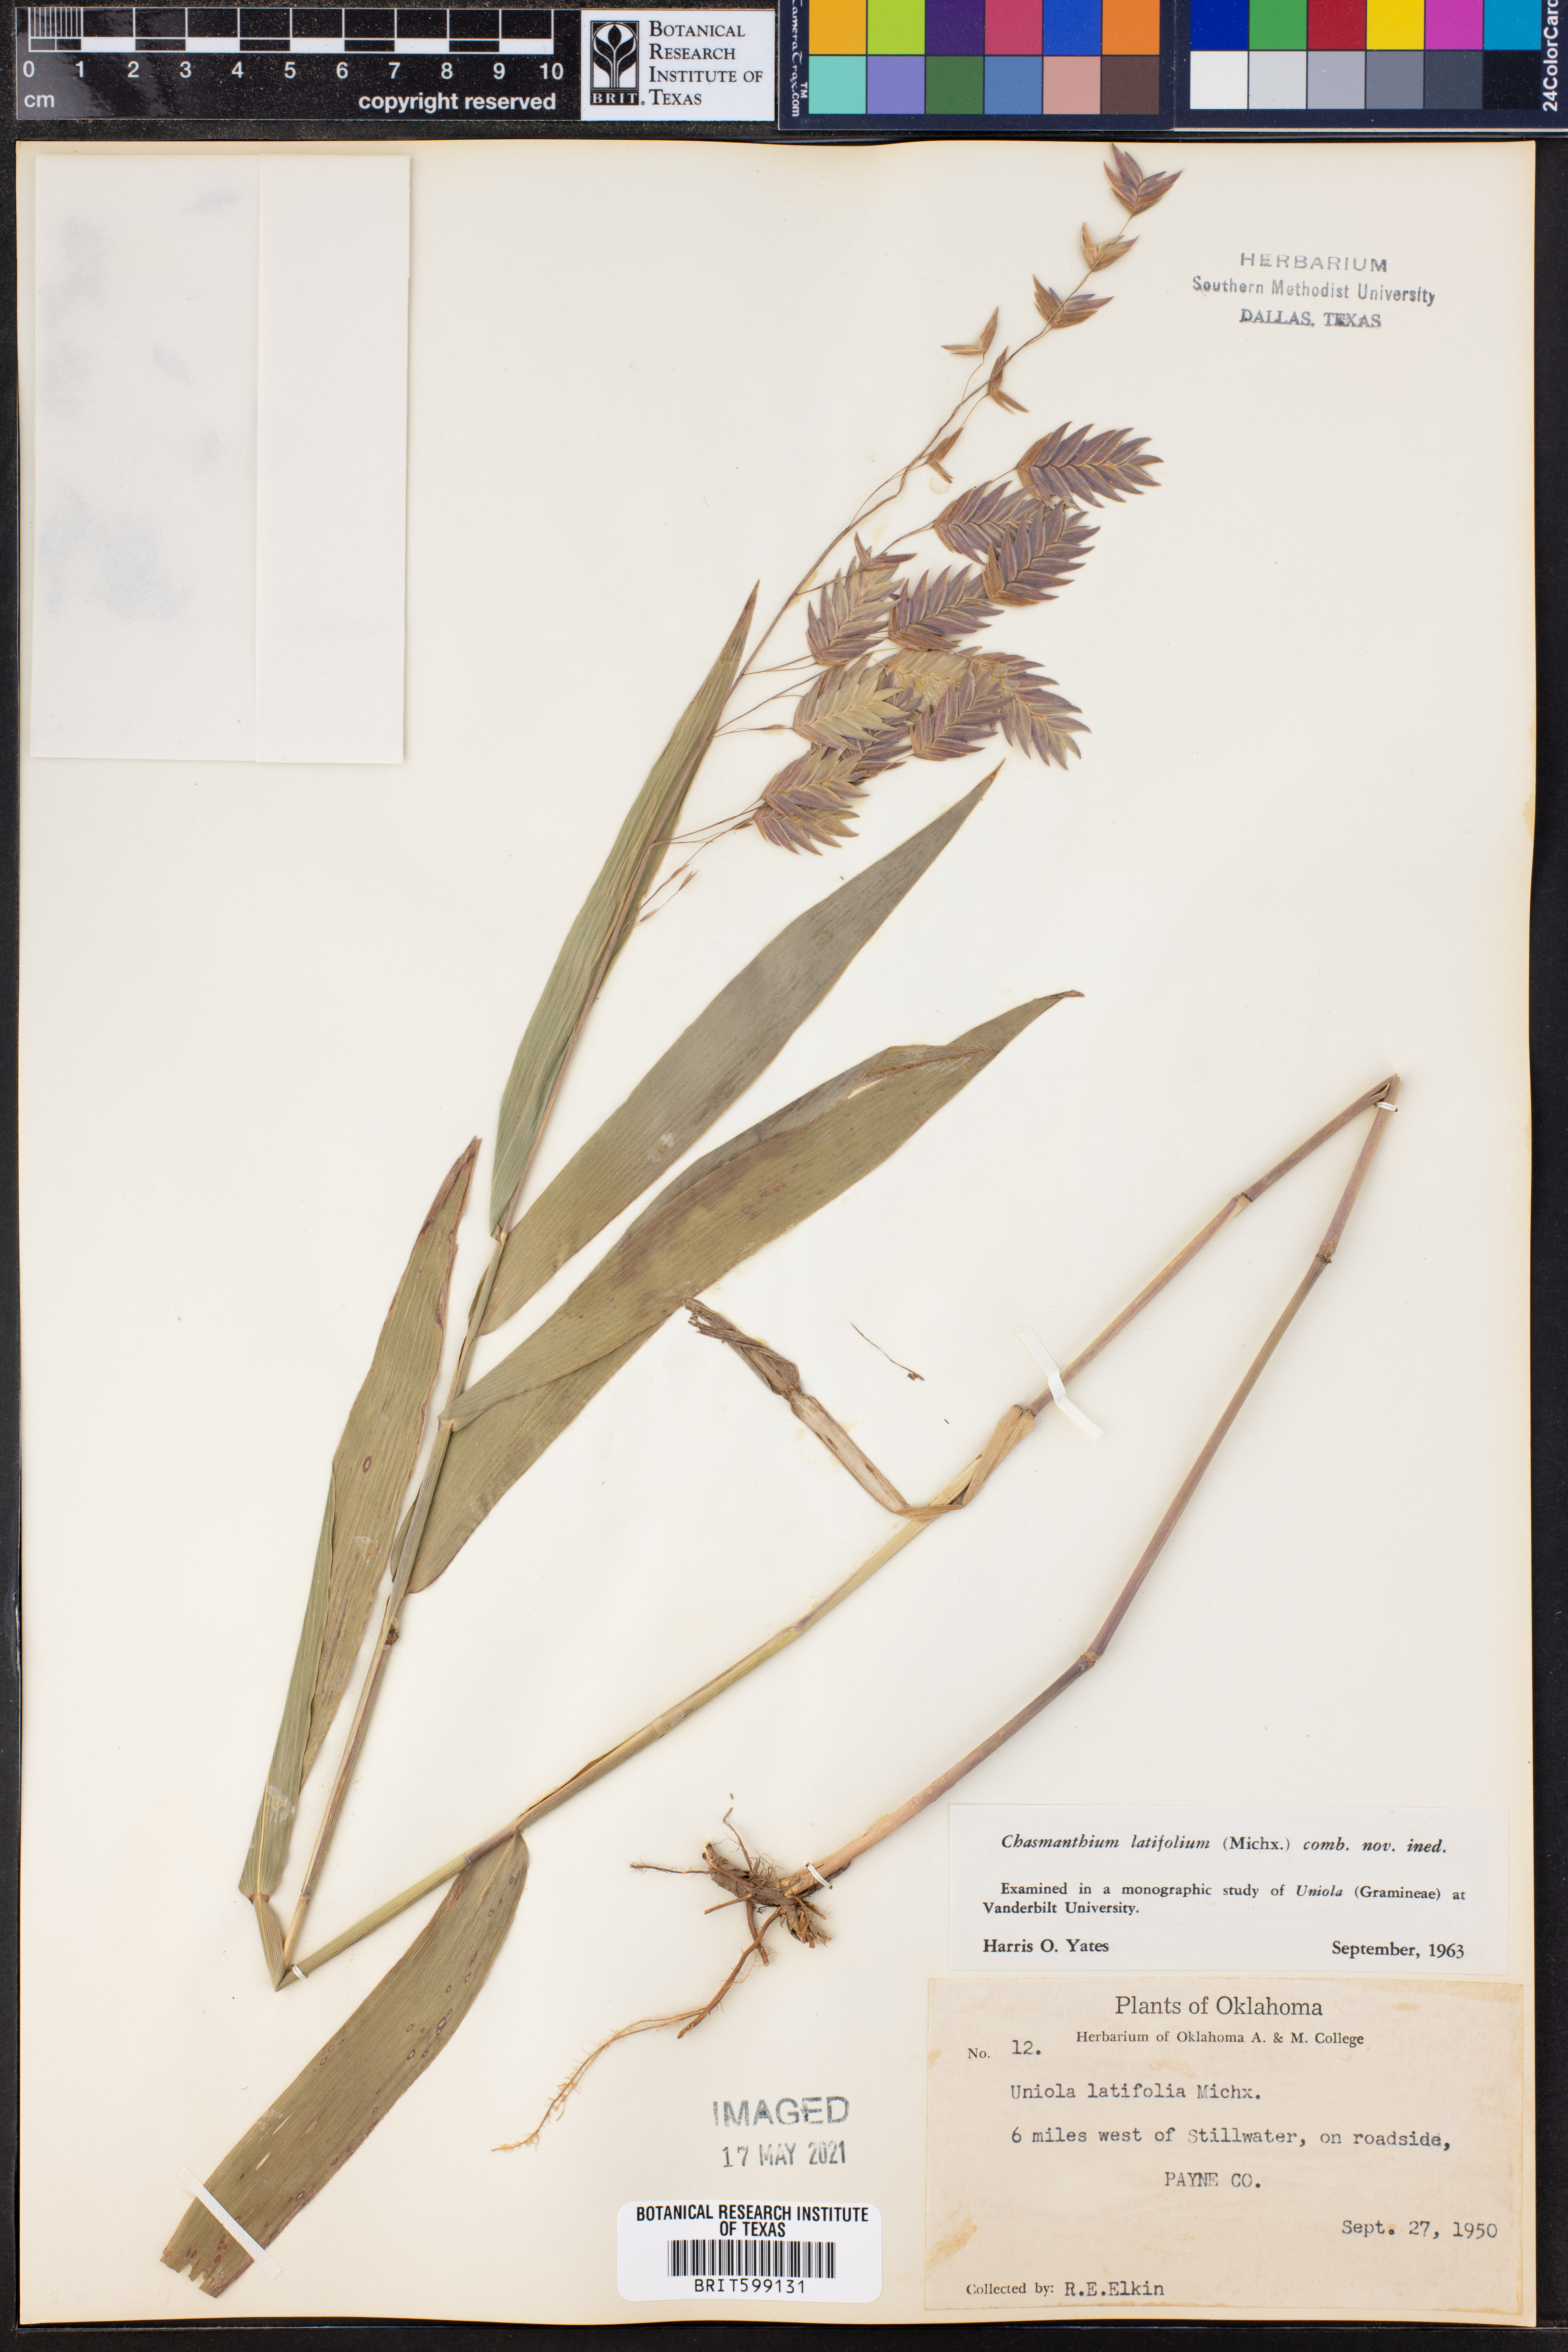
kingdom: Plantae
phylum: Tracheophyta
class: Liliopsida
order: Poales
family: Poaceae
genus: Chasmanthium
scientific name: Chasmanthium latifolium
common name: Broad-leaved chasmanthium
